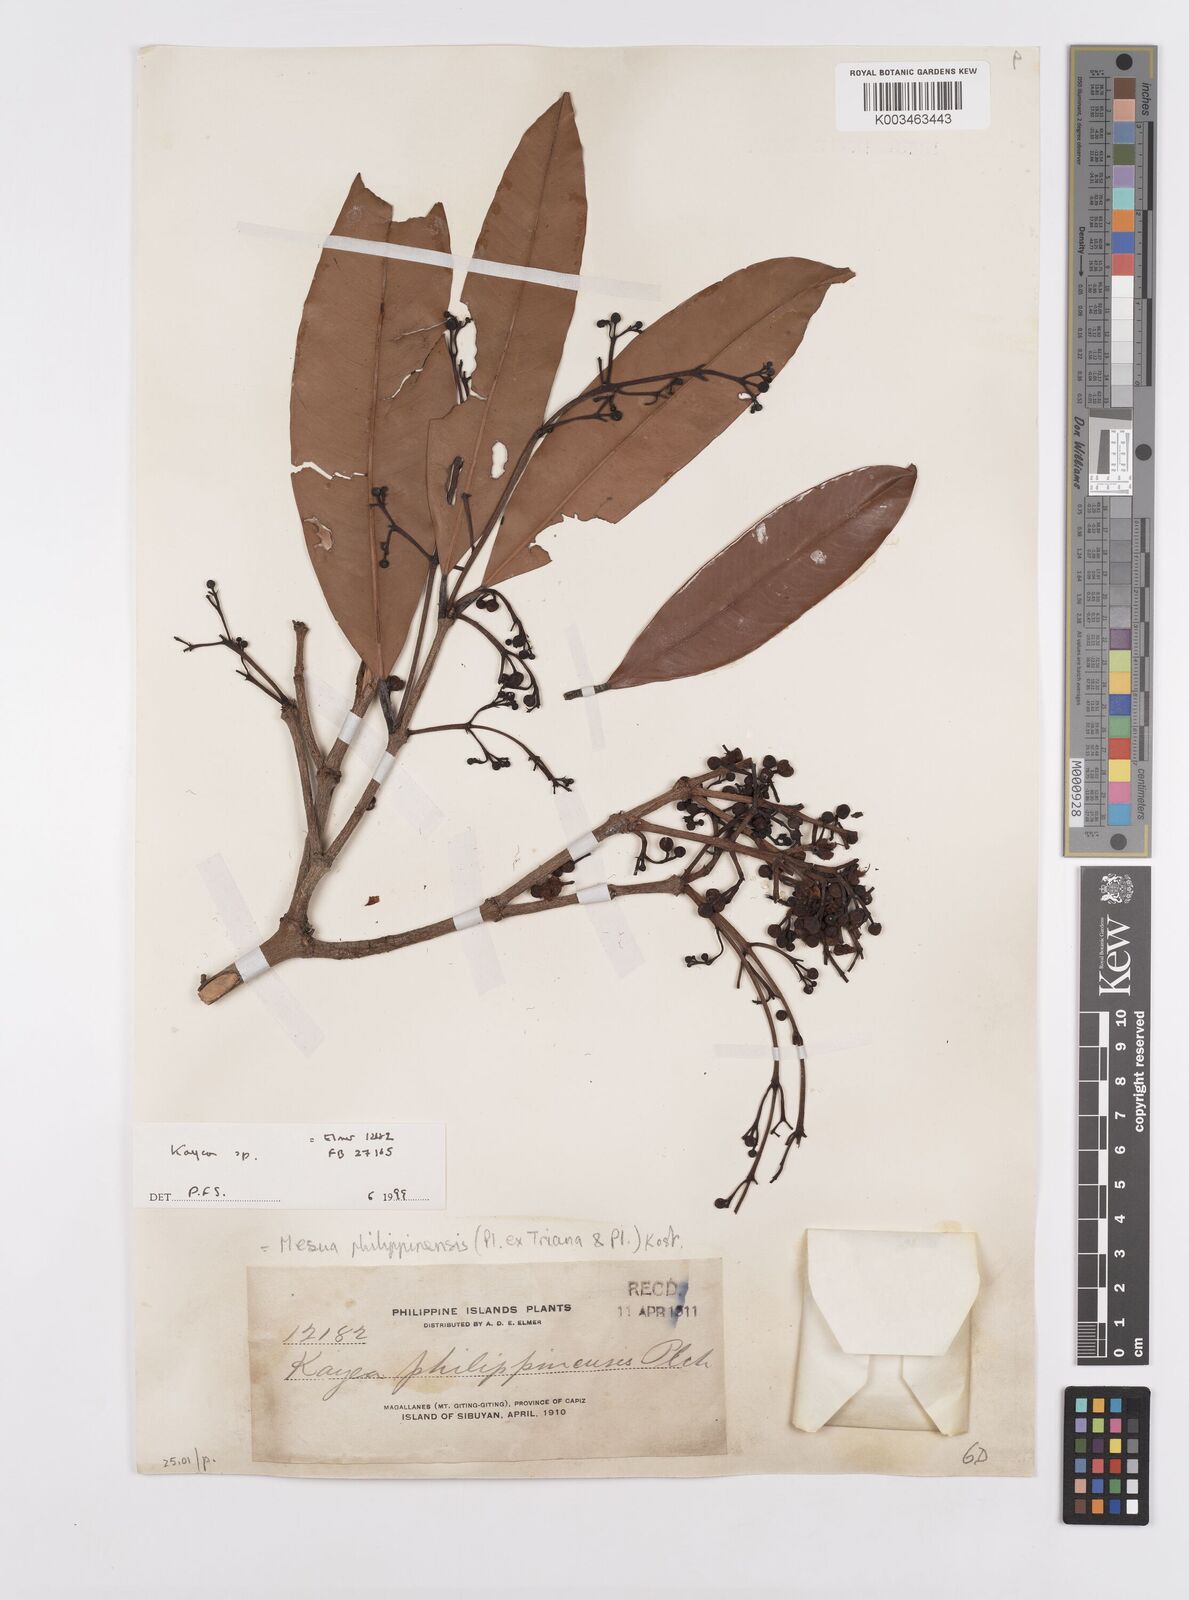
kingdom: Plantae
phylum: Tracheophyta
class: Magnoliopsida
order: Malpighiales
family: Calophyllaceae
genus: Kayea
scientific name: Kayea
